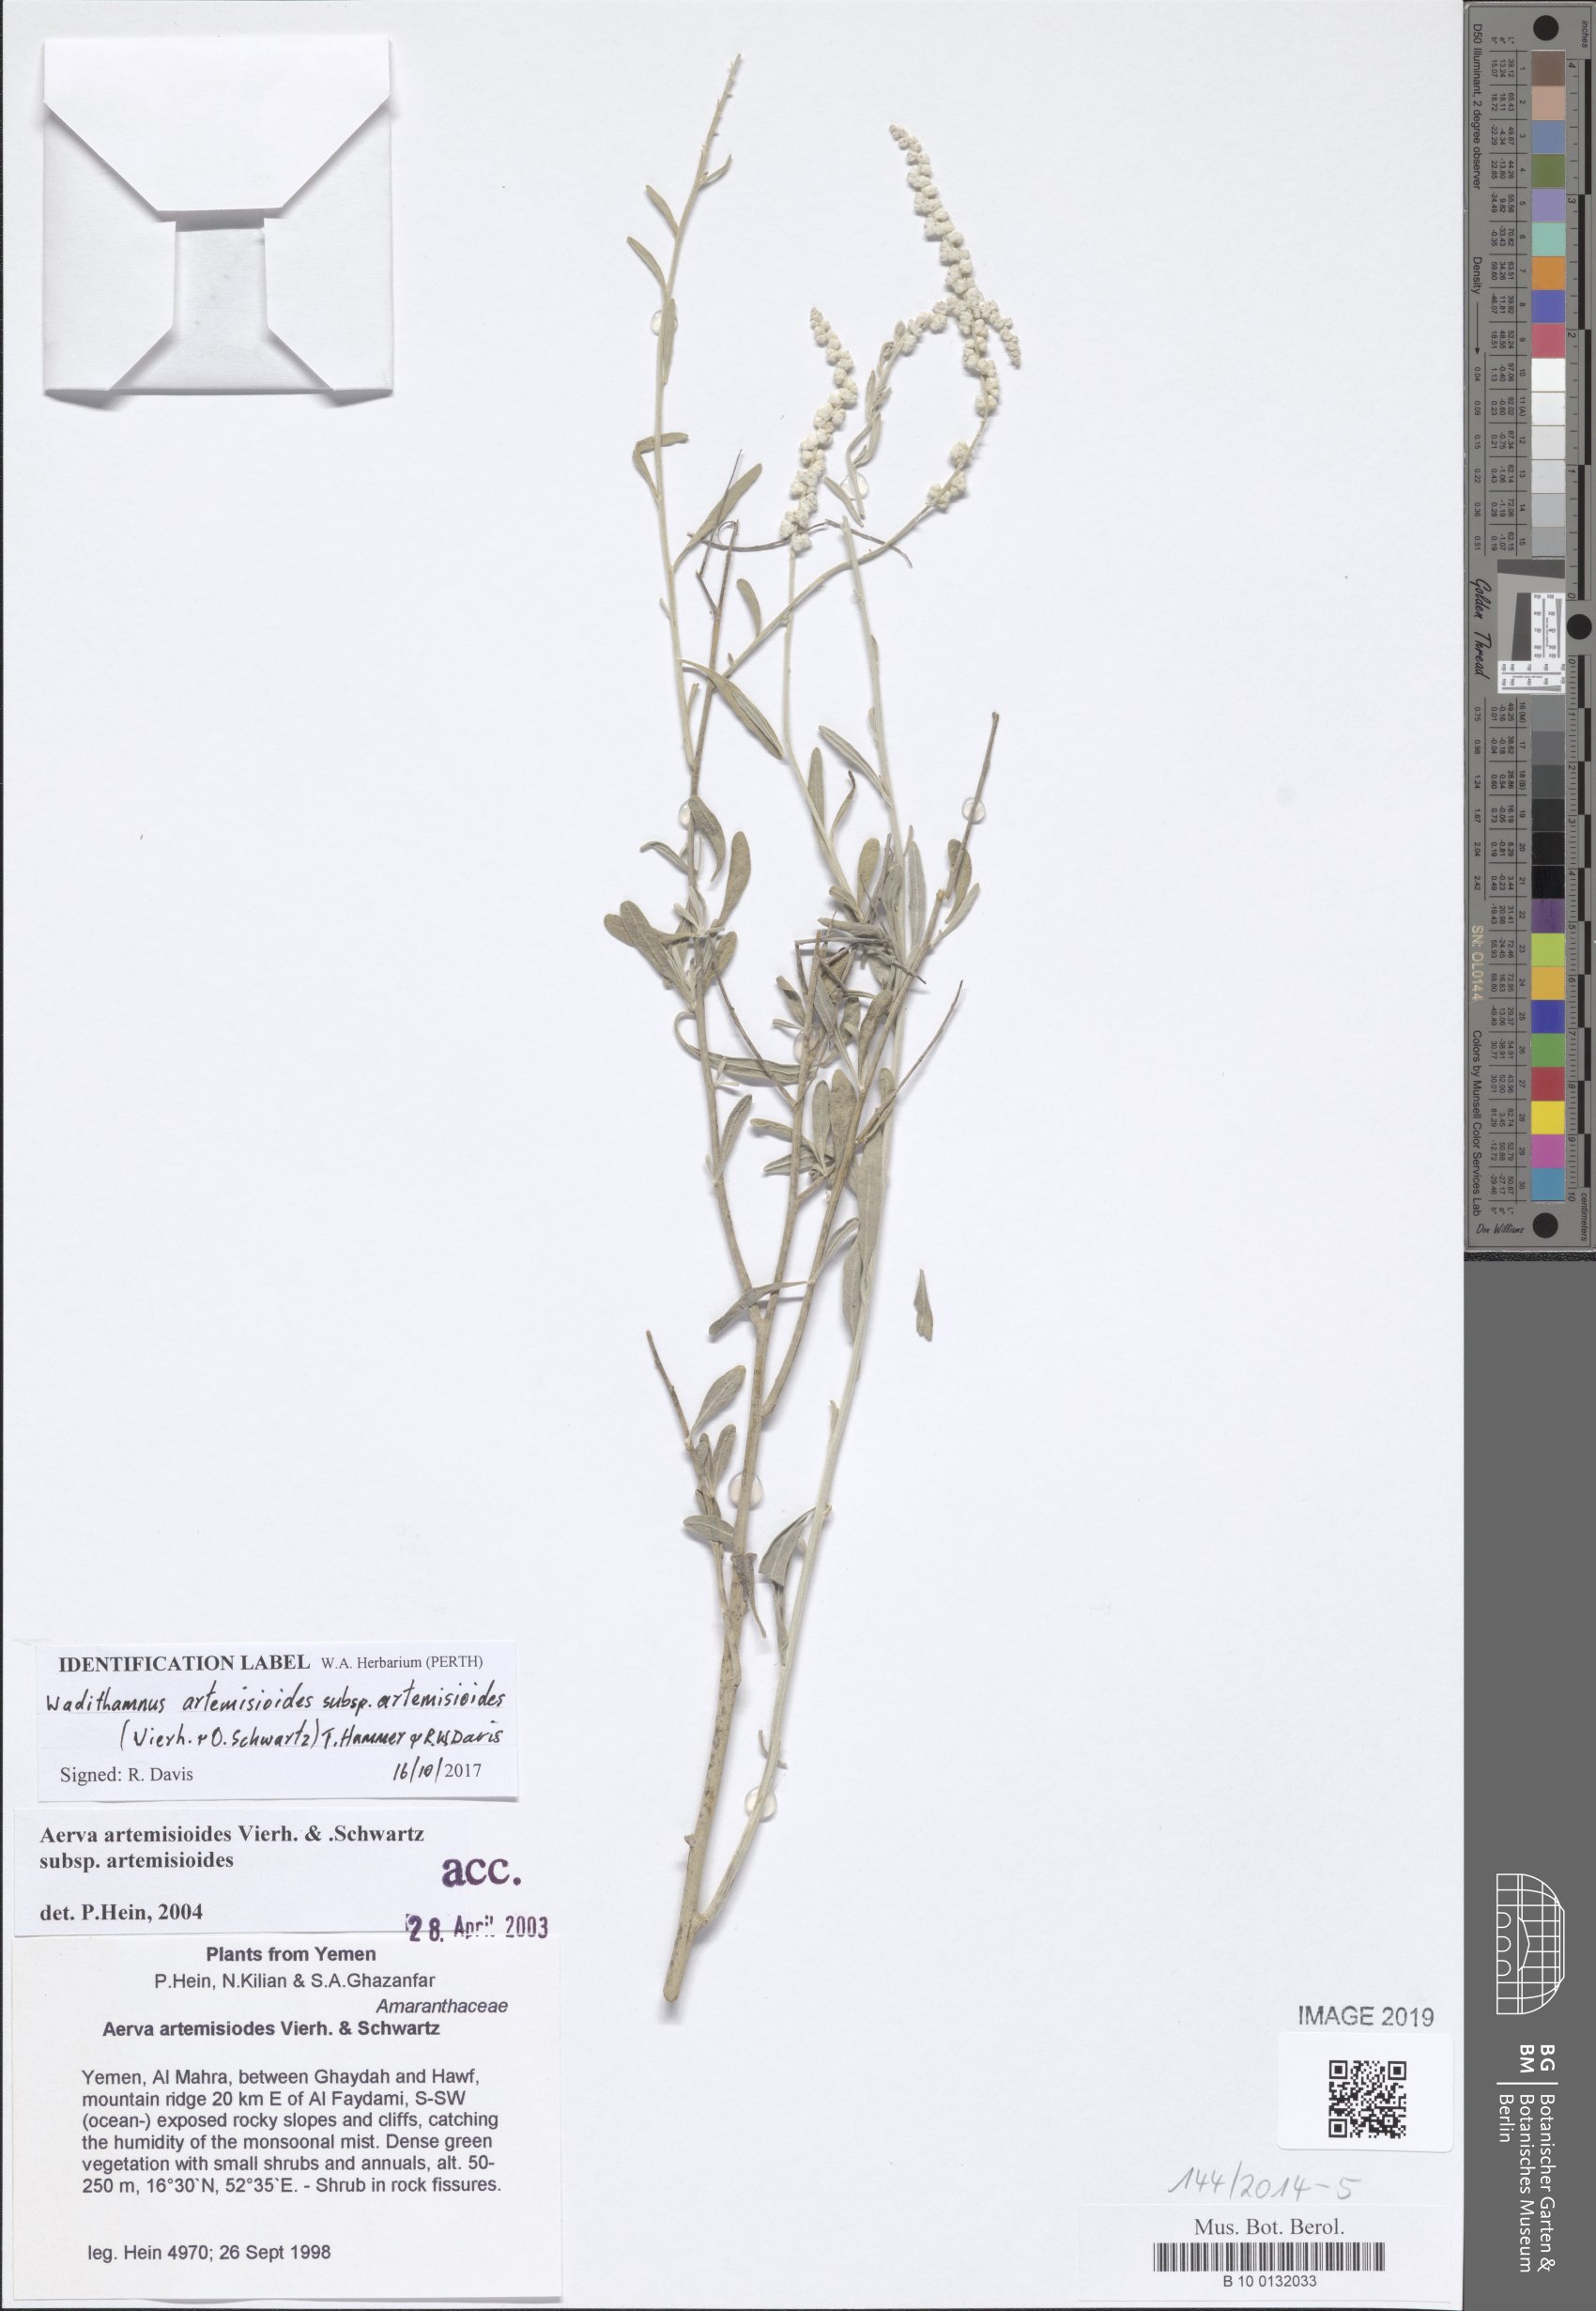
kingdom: Plantae
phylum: Tracheophyta
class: Magnoliopsida
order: Caryophyllales
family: Amaranthaceae
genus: Wadithamnus
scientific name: Wadithamnus artemisioides
